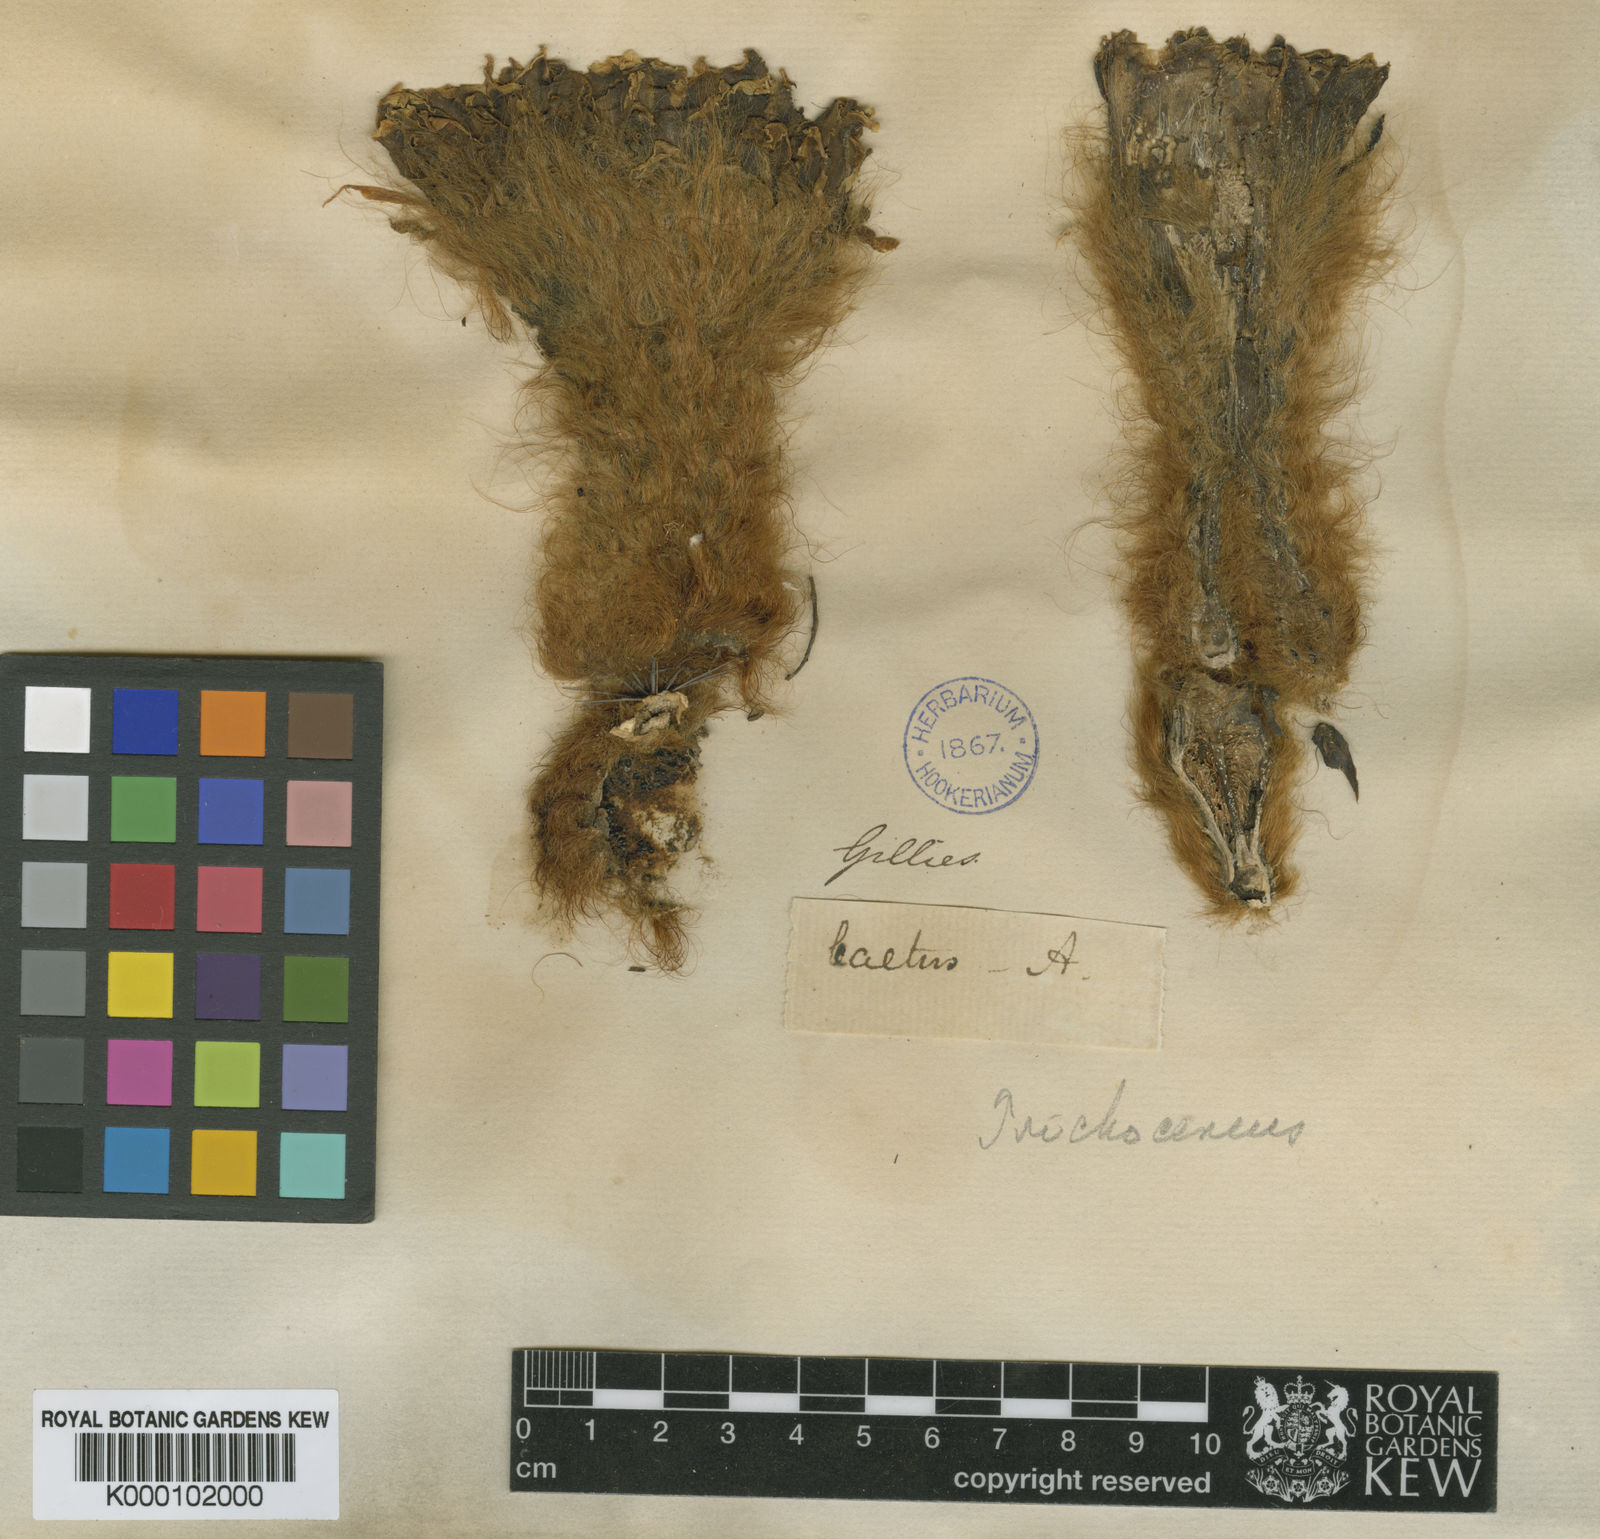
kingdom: Plantae
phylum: Tracheophyta
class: Magnoliopsida
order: Caryophyllales
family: Cactaceae
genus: Soehrensia
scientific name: Soehrensia strigosa
